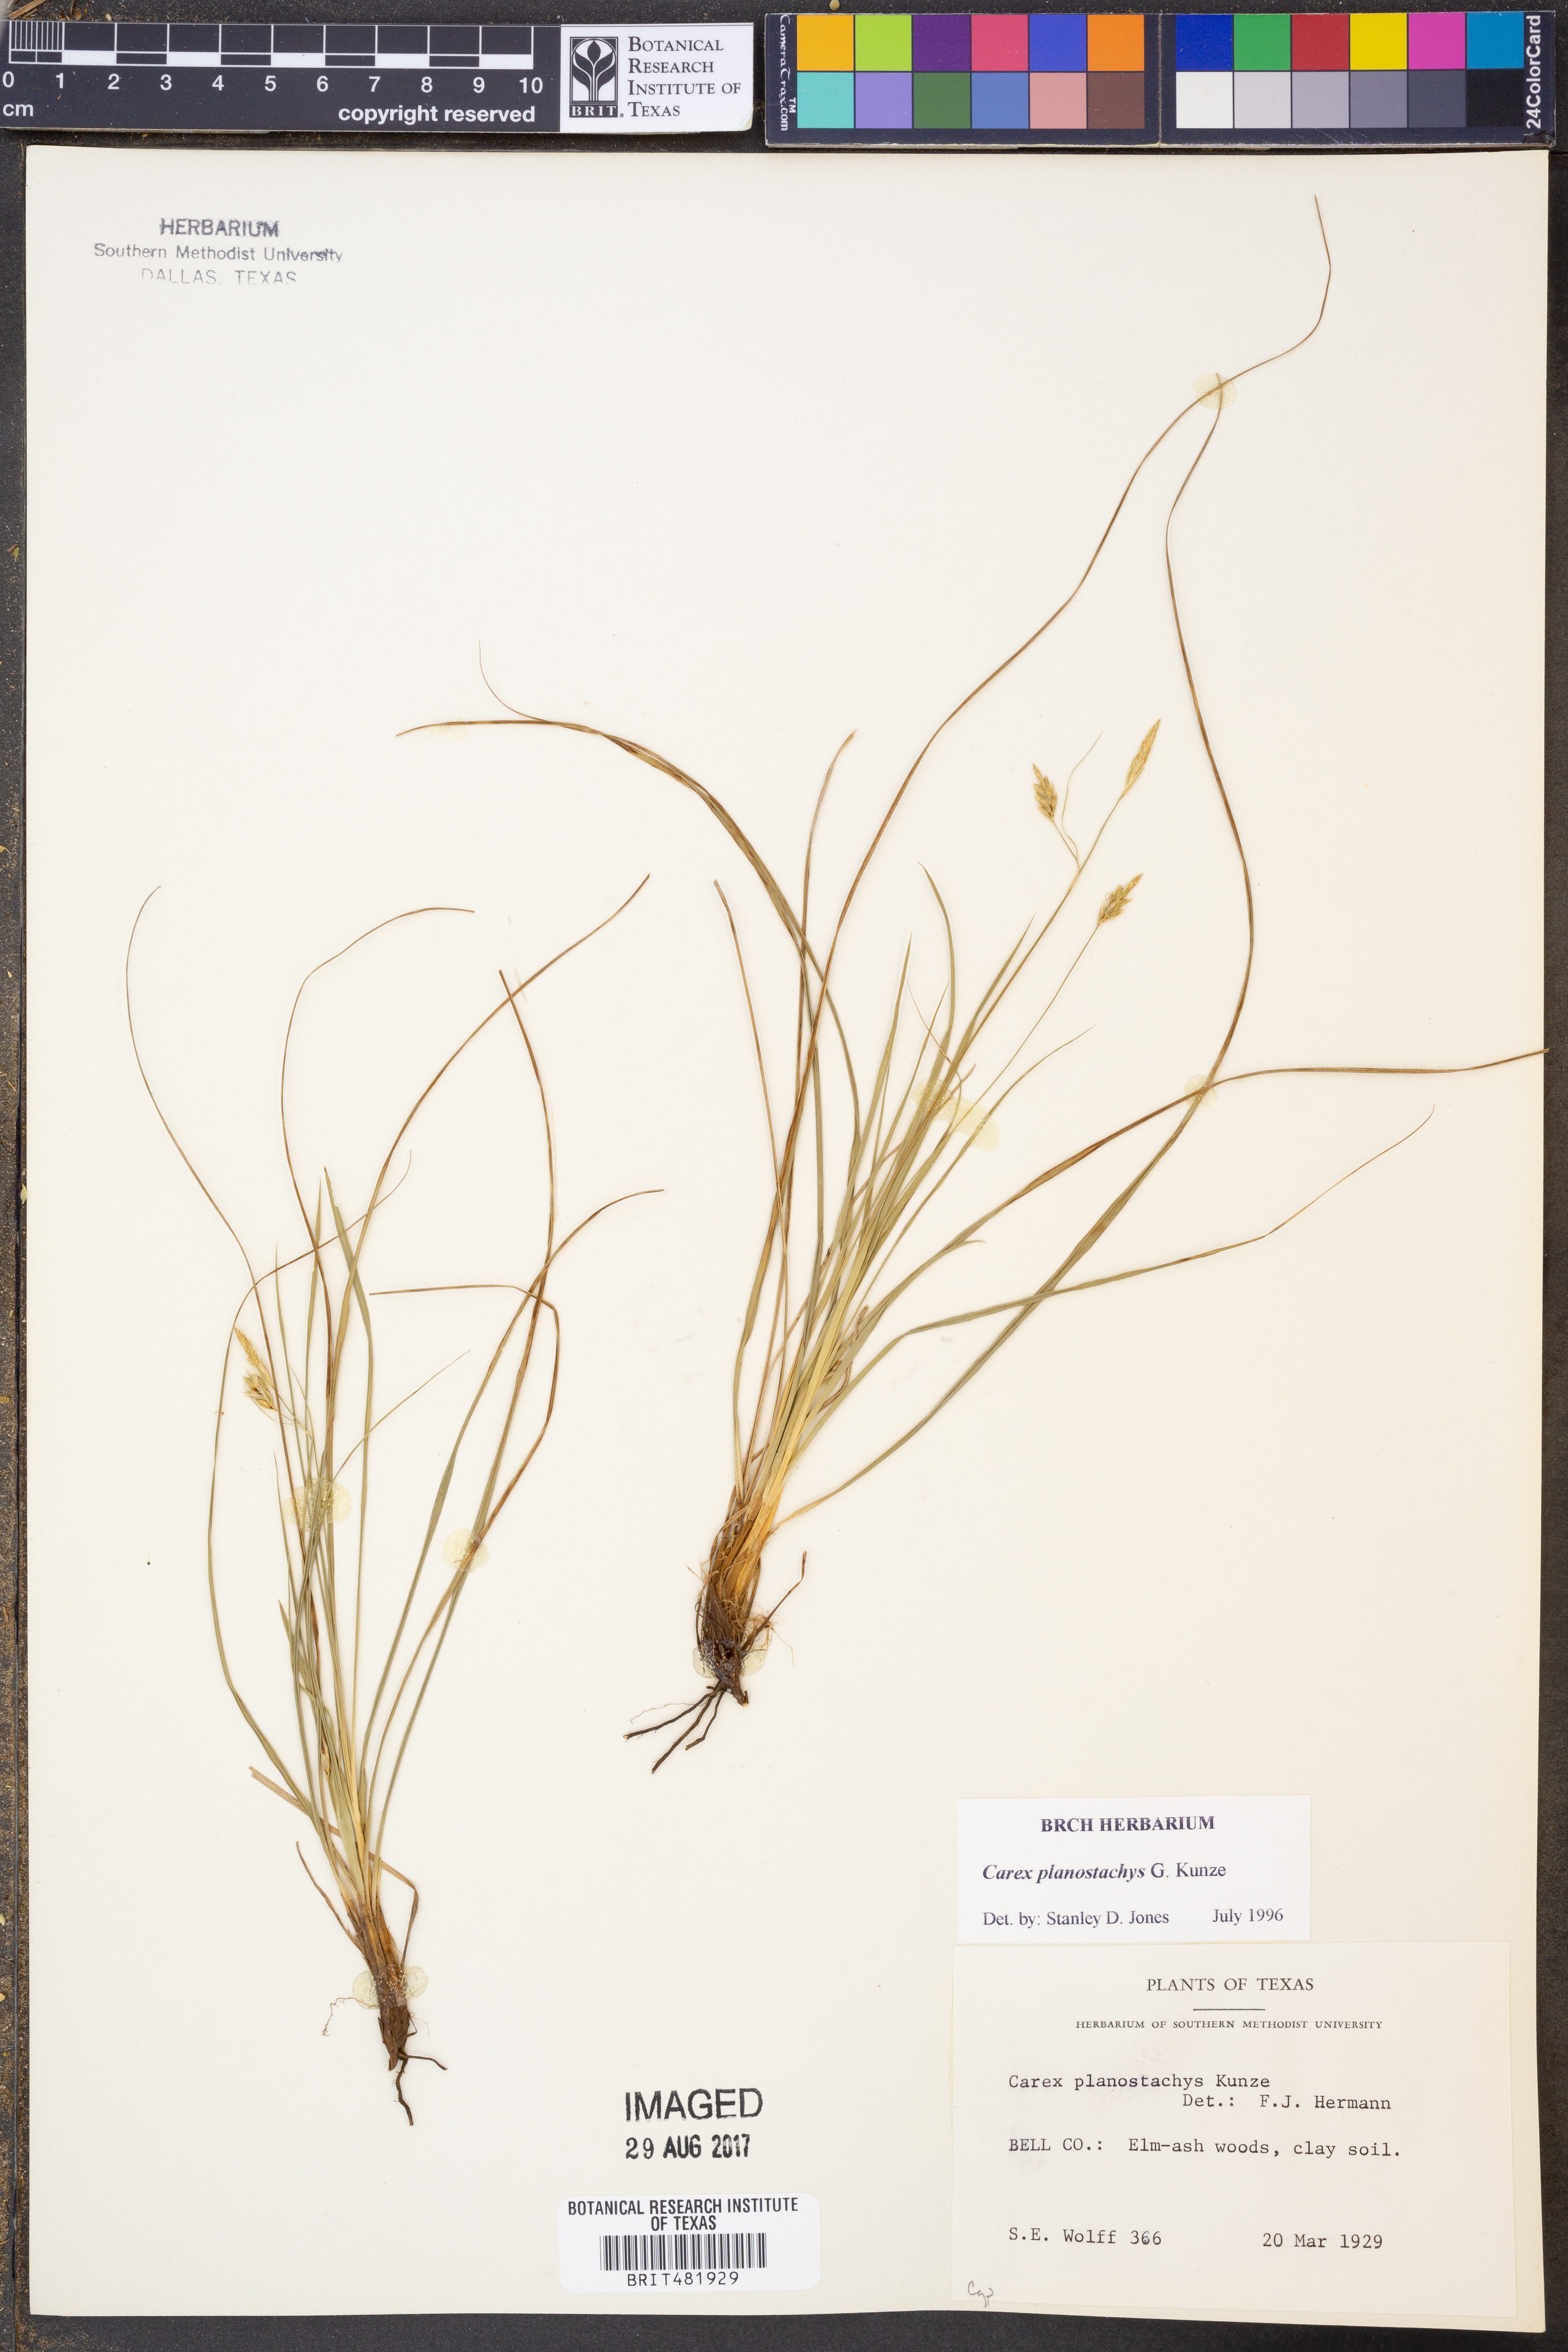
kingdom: Plantae
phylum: Tracheophyta
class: Liliopsida
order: Poales
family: Cyperaceae
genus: Carex
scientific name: Carex planostachys
